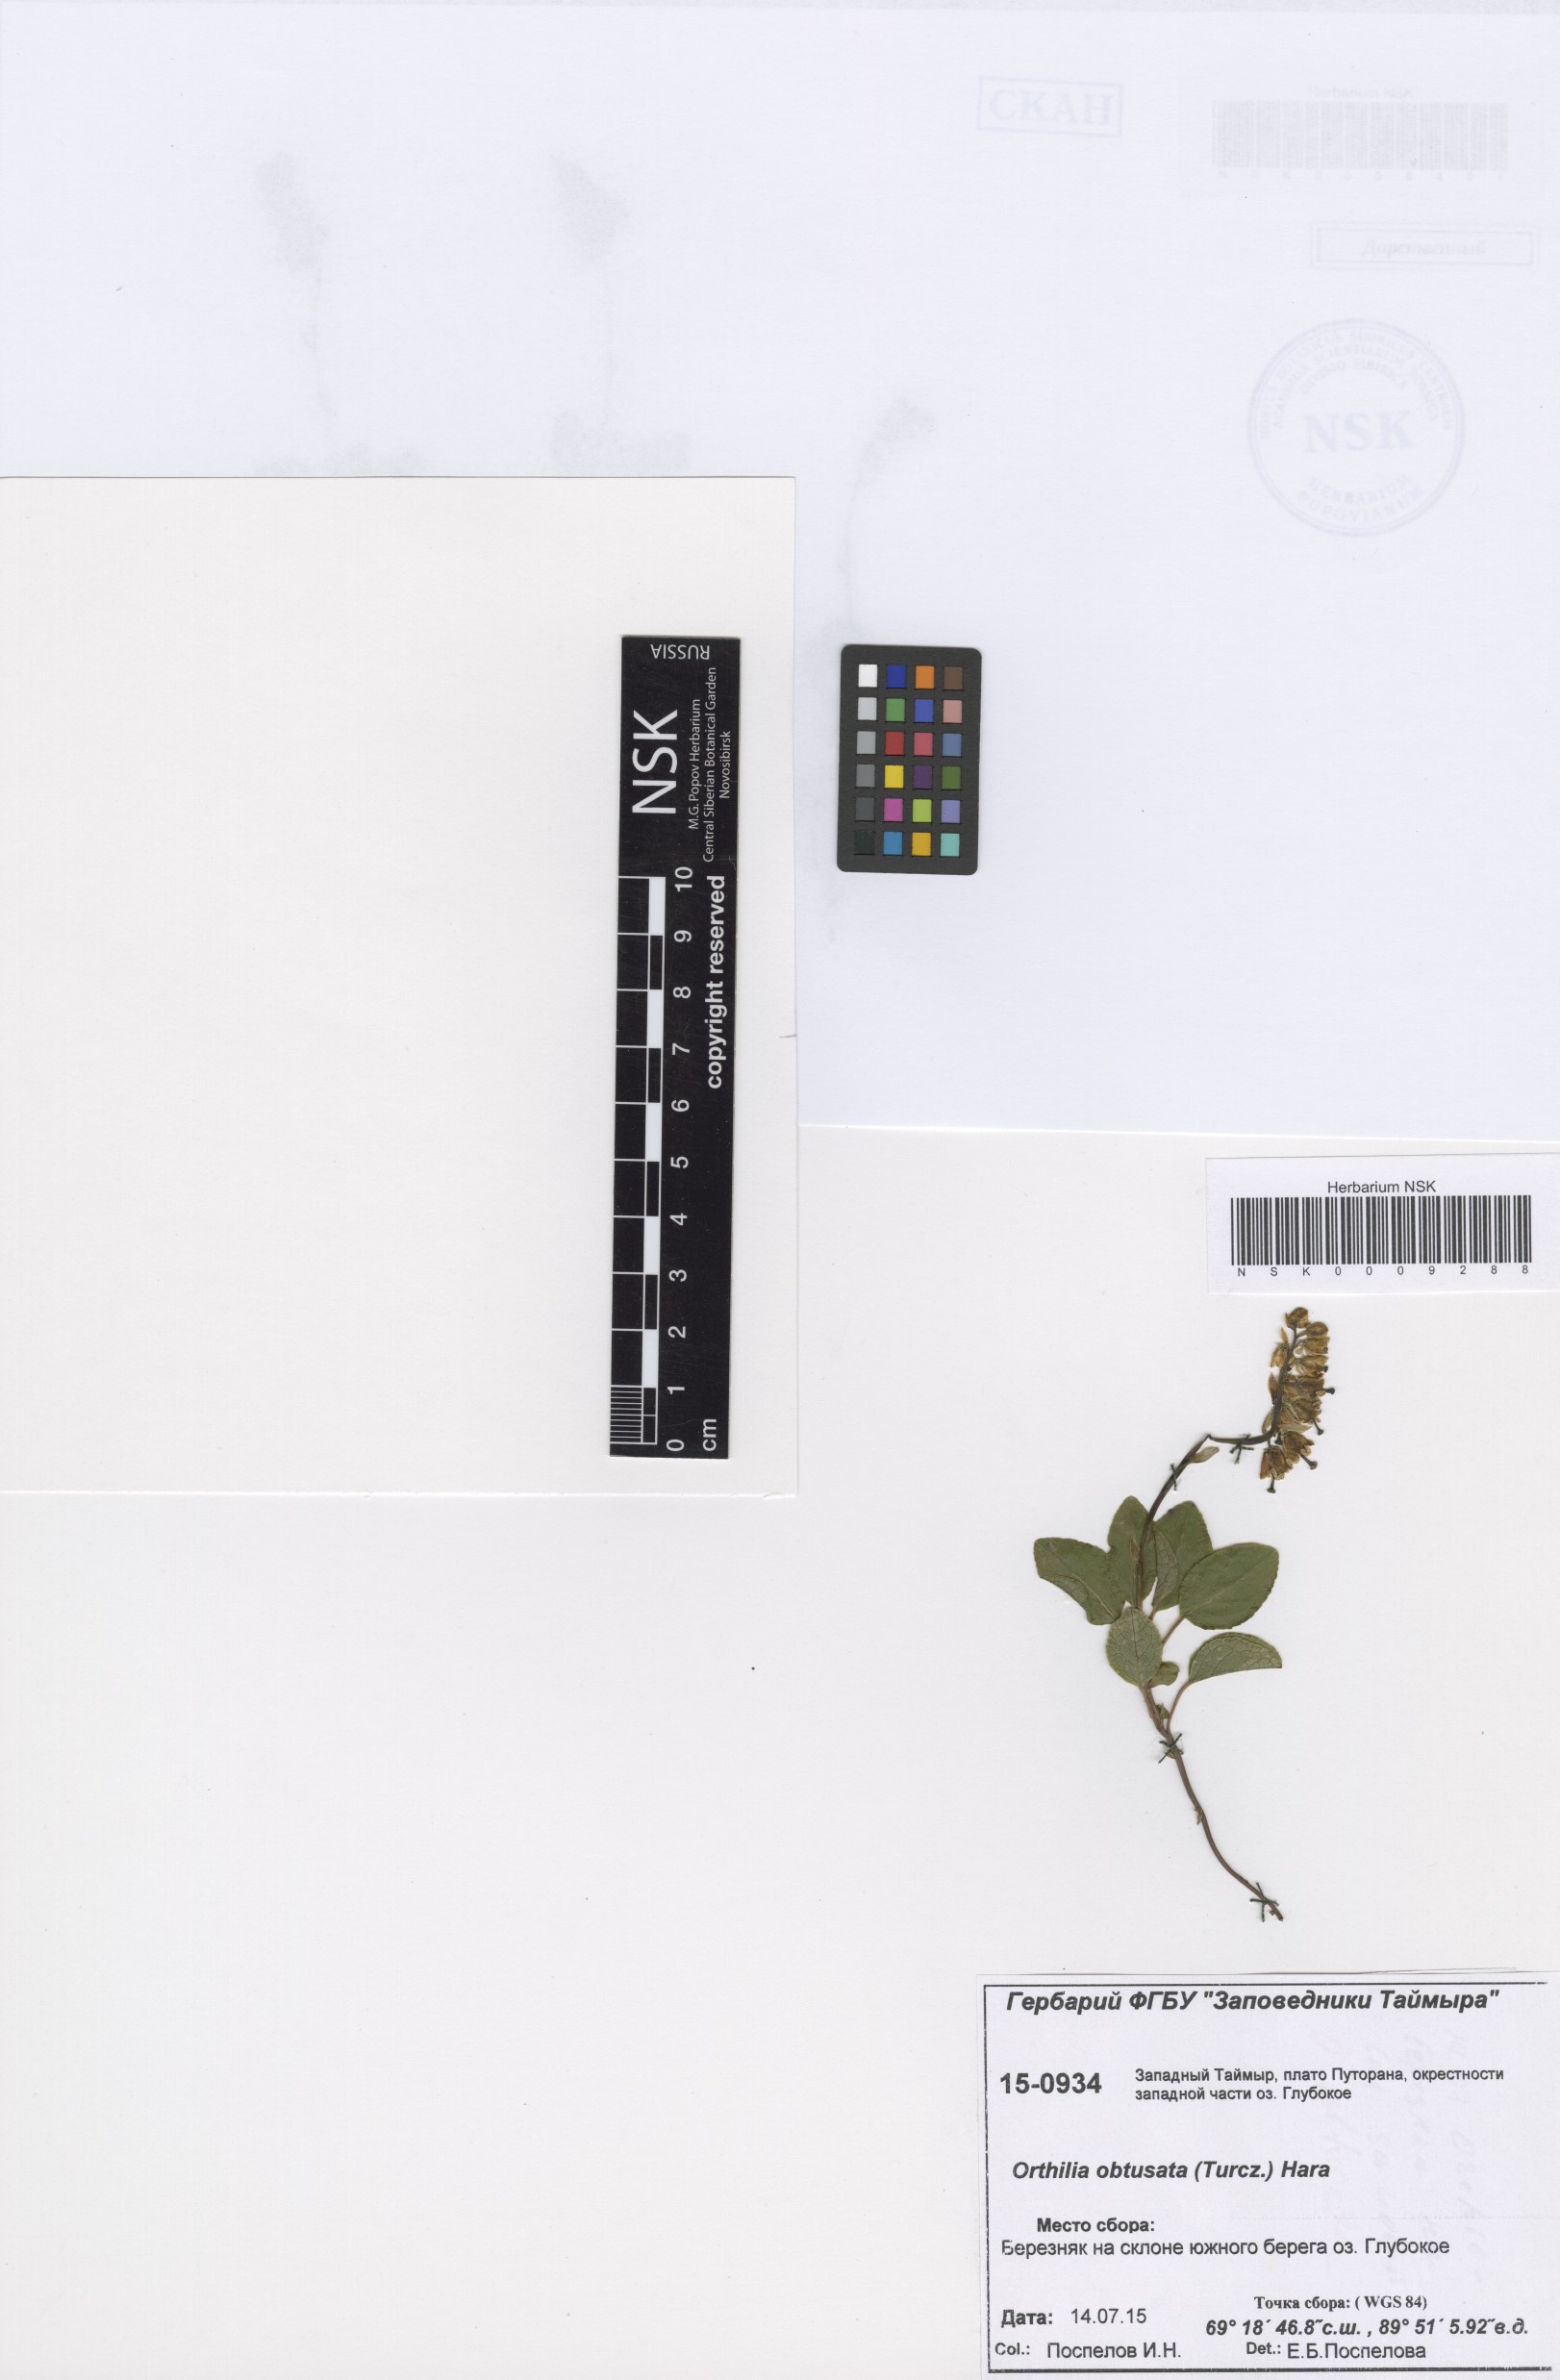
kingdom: Plantae
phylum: Tracheophyta
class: Magnoliopsida
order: Ericales
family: Ericaceae
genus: Orthilia
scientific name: Orthilia secunda
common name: One-sided orthilia
